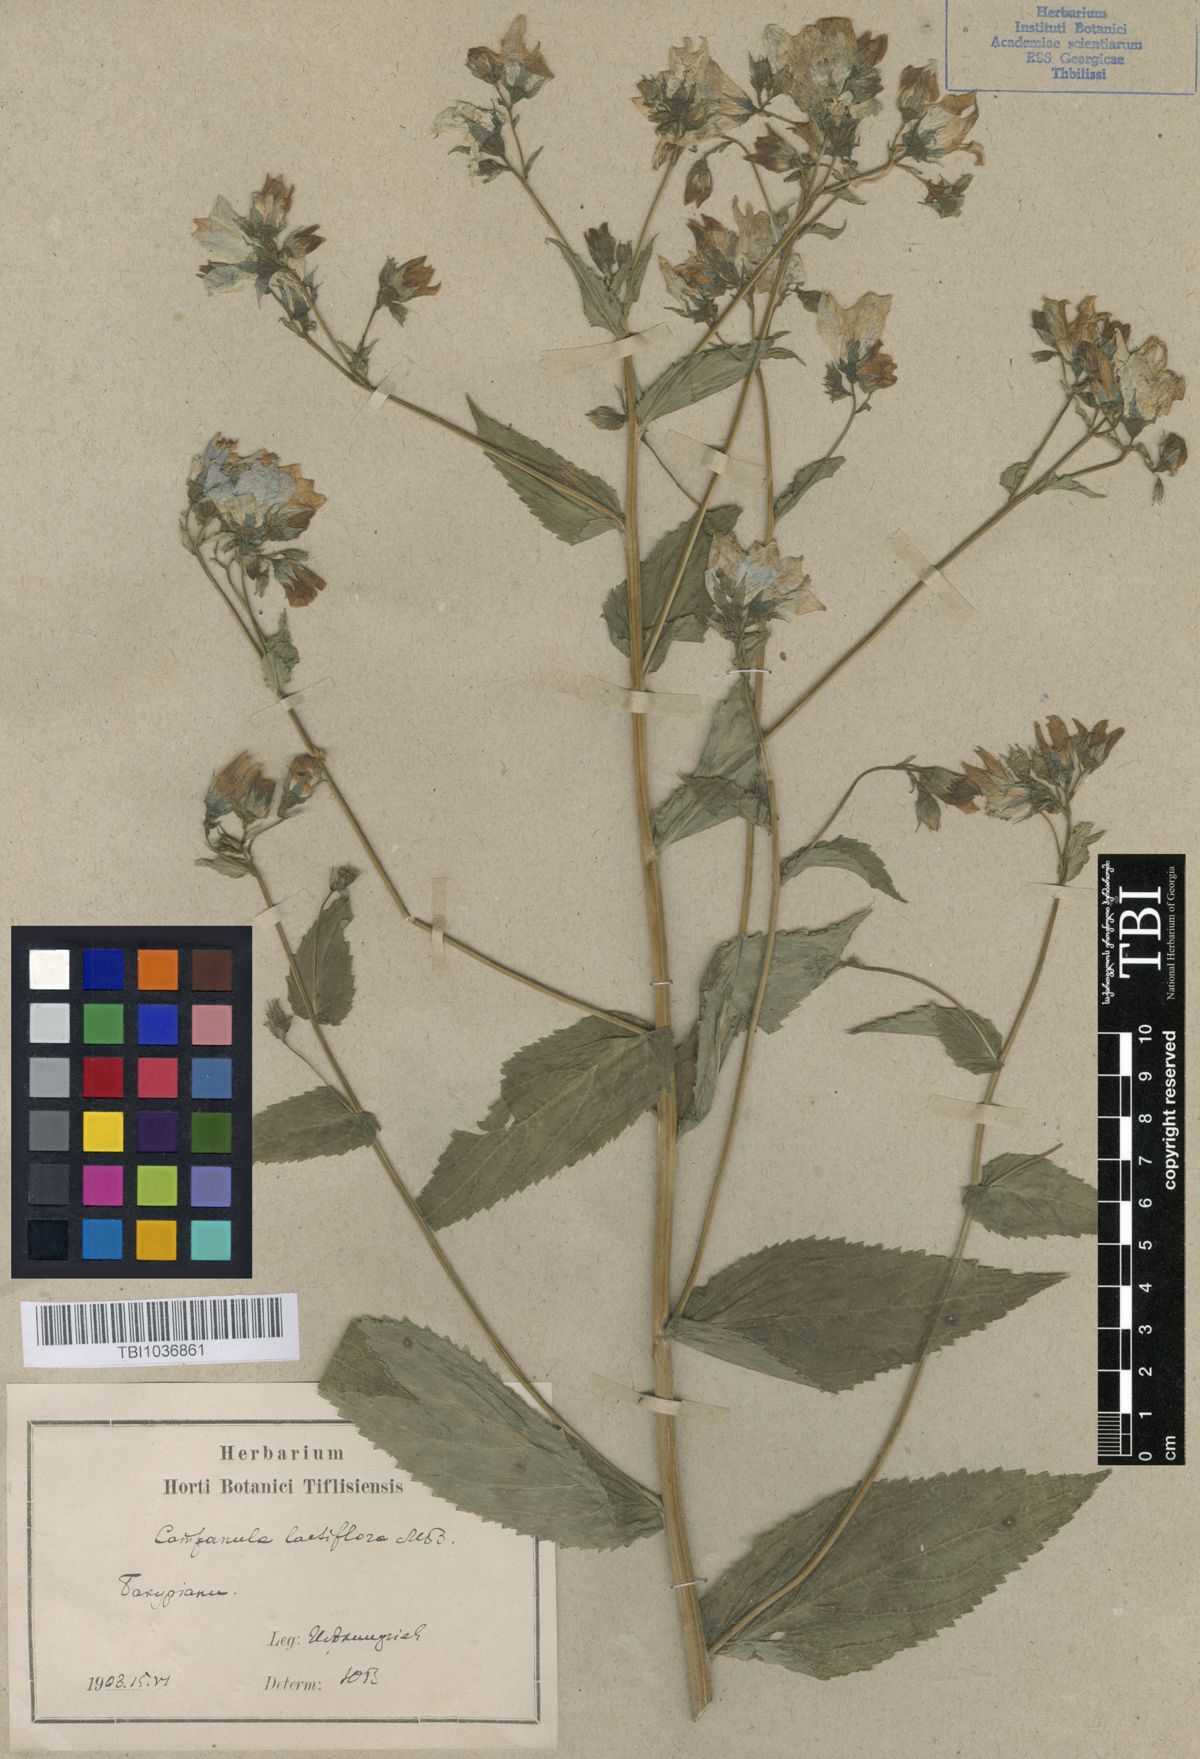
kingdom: Plantae
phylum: Tracheophyta
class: Magnoliopsida
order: Asterales
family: Campanulaceae
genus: Campanula
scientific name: Campanula lactiflora
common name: Milky bellflower
